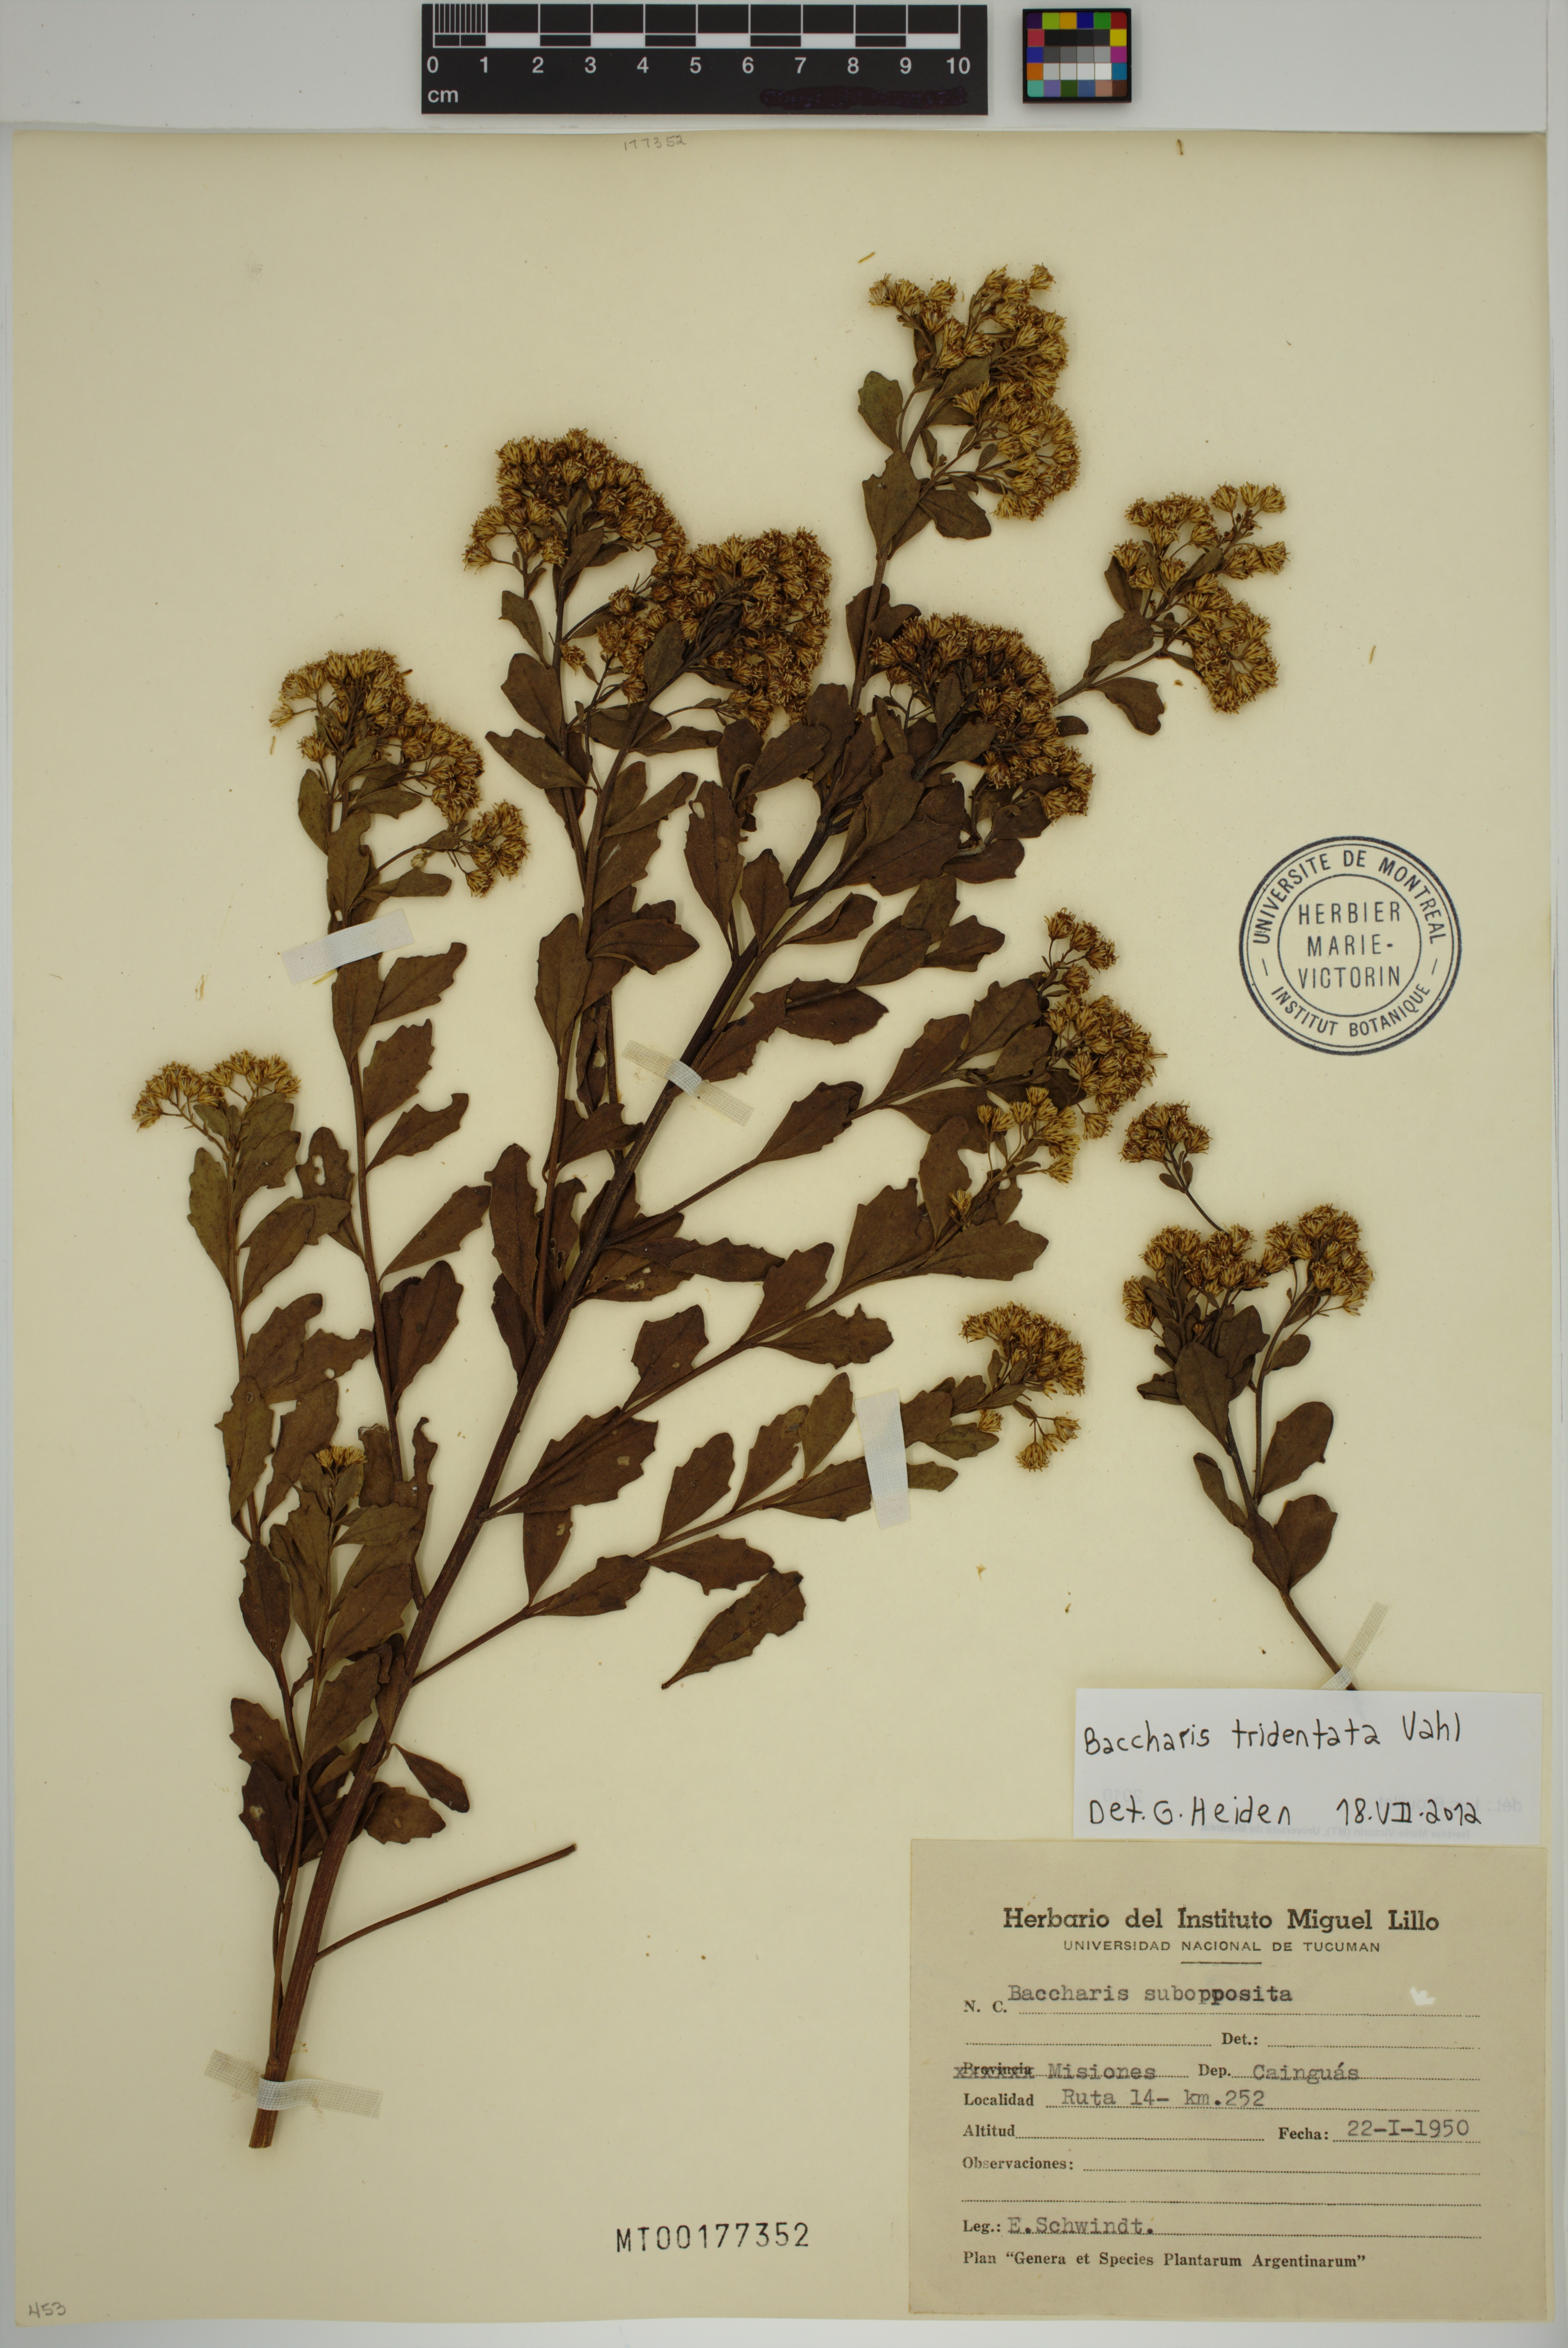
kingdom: Plantae
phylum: Tracheophyta
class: Magnoliopsida
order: Asterales
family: Asteraceae
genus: Baccharis
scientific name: Baccharis tridentata
